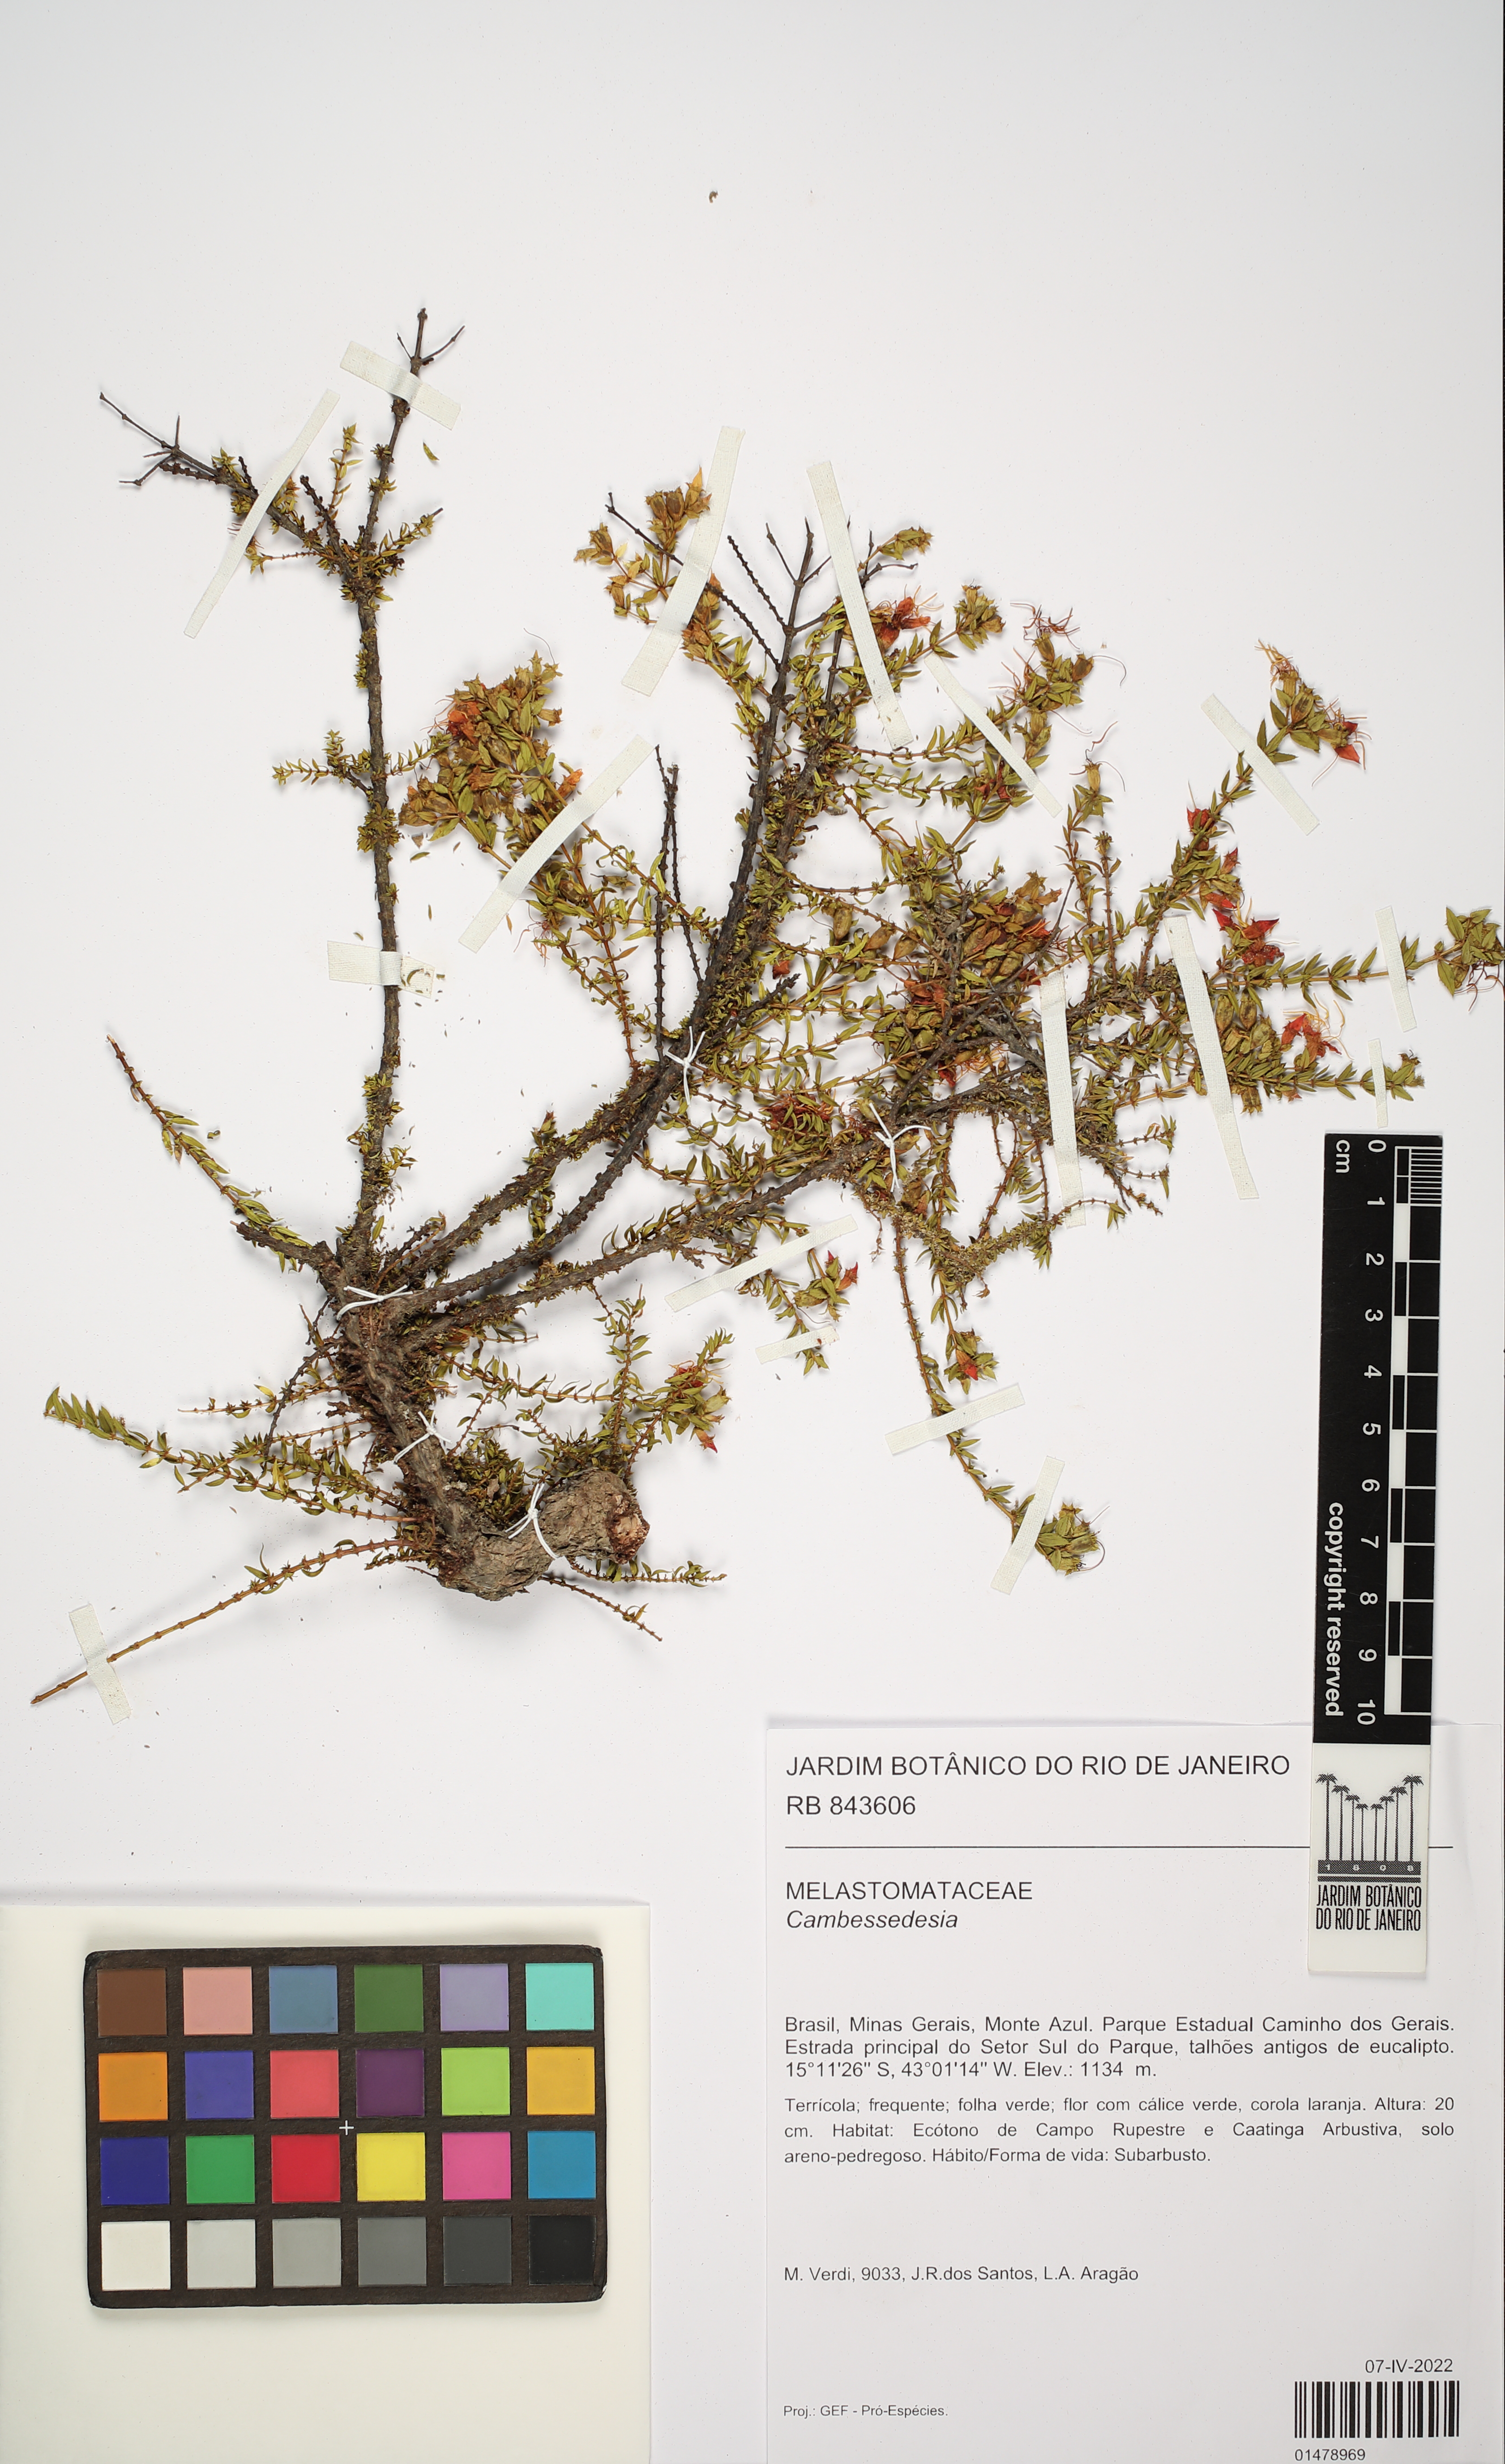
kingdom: Plantae
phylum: Tracheophyta
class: Magnoliopsida
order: Myrtales
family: Melastomataceae
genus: Cambessedesia
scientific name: Cambessedesia
